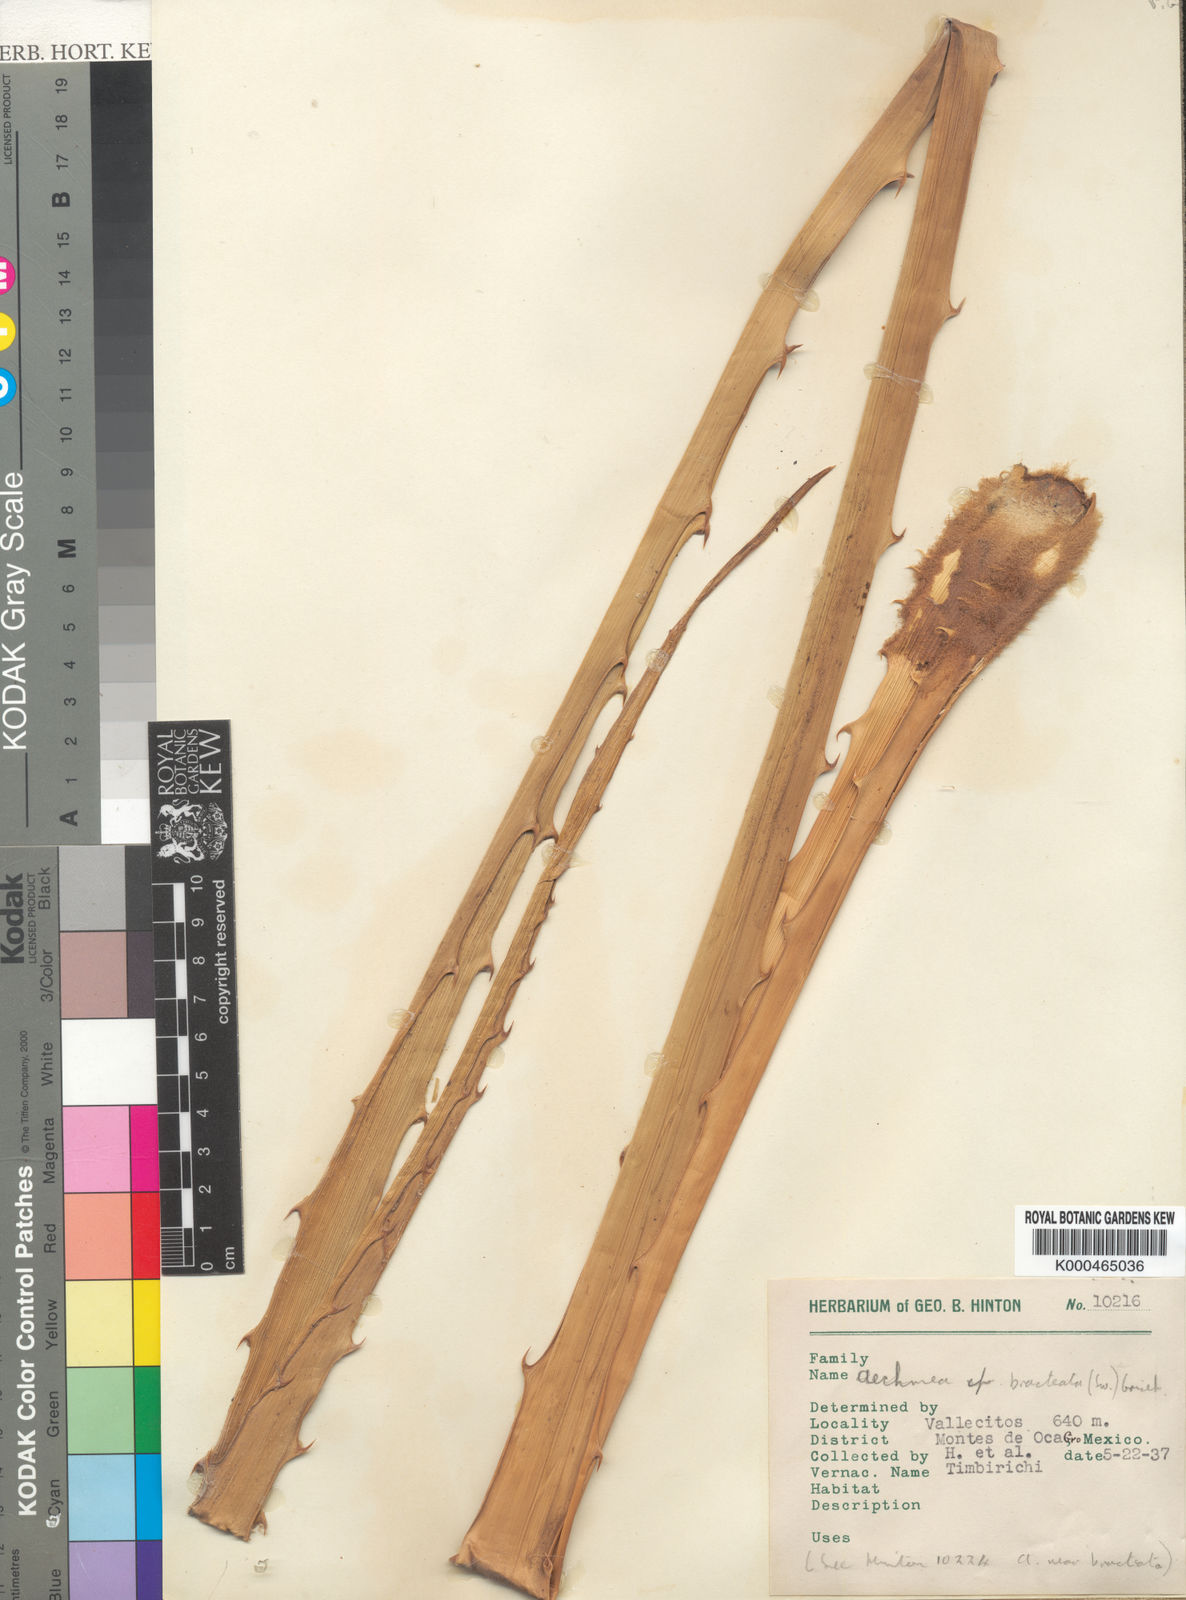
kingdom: Plantae
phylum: Tracheophyta
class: Liliopsida
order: Poales
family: Bromeliaceae
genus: Aechmea
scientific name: Aechmea bracteata
